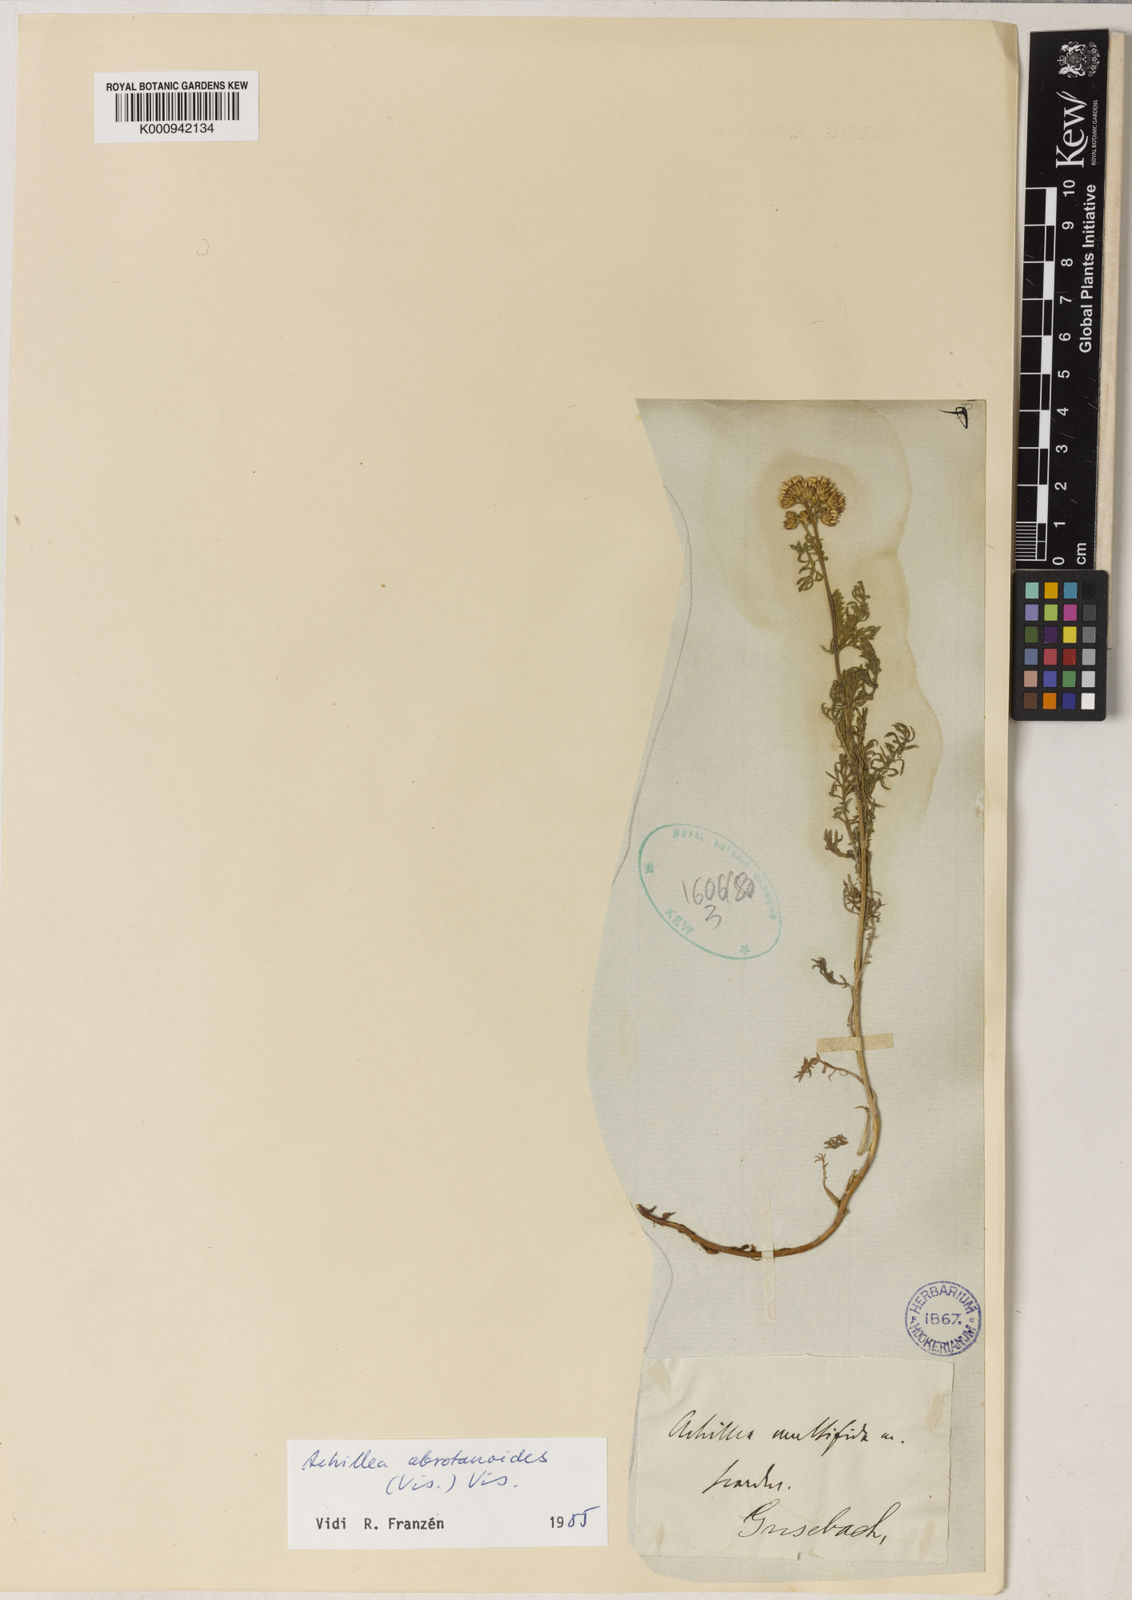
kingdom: Plantae
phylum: Tracheophyta
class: Magnoliopsida
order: Asterales
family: Asteraceae
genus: Achillea
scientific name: Achillea abrotanoides
